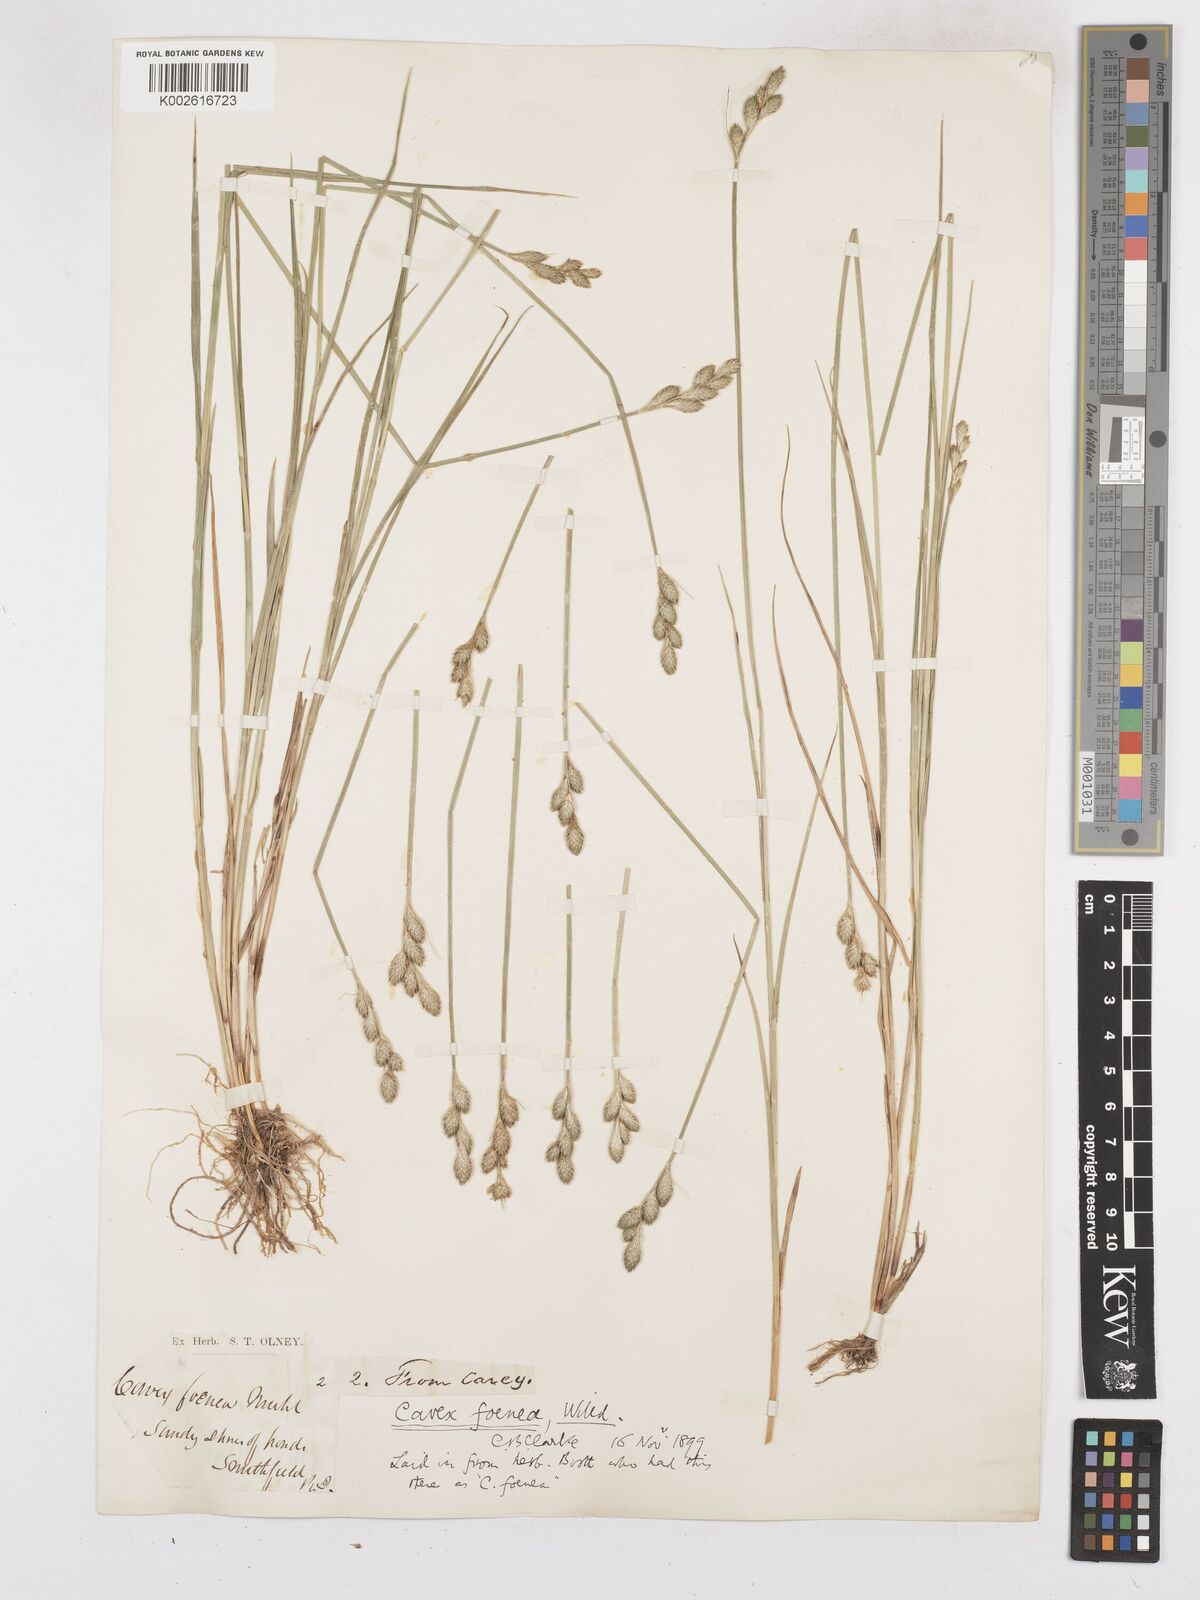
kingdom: Plantae
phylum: Tracheophyta
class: Liliopsida
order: Poales
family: Cyperaceae
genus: Carex
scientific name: Carex argyrantha
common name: Silvery-flowered sedge
